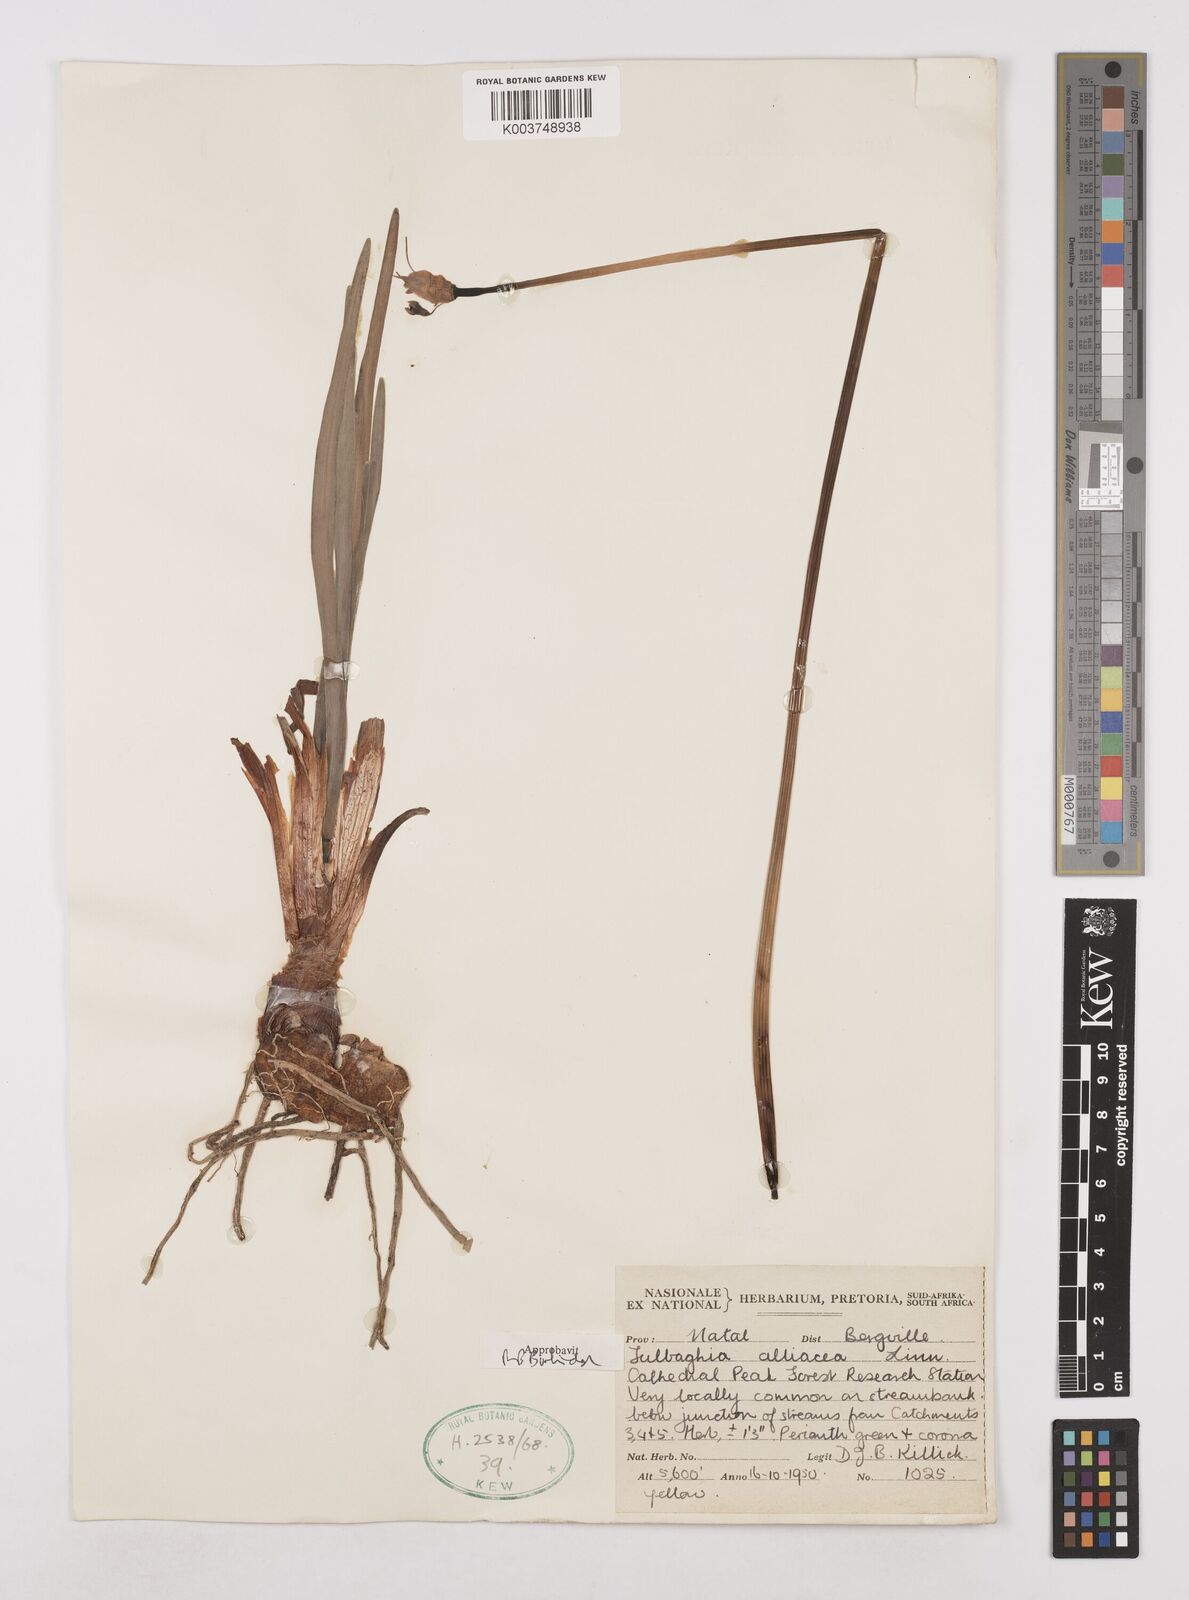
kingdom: Plantae
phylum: Tracheophyta
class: Liliopsida
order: Asparagales
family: Amaryllidaceae
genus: Tulbaghia
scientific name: Tulbaghia alliacea
